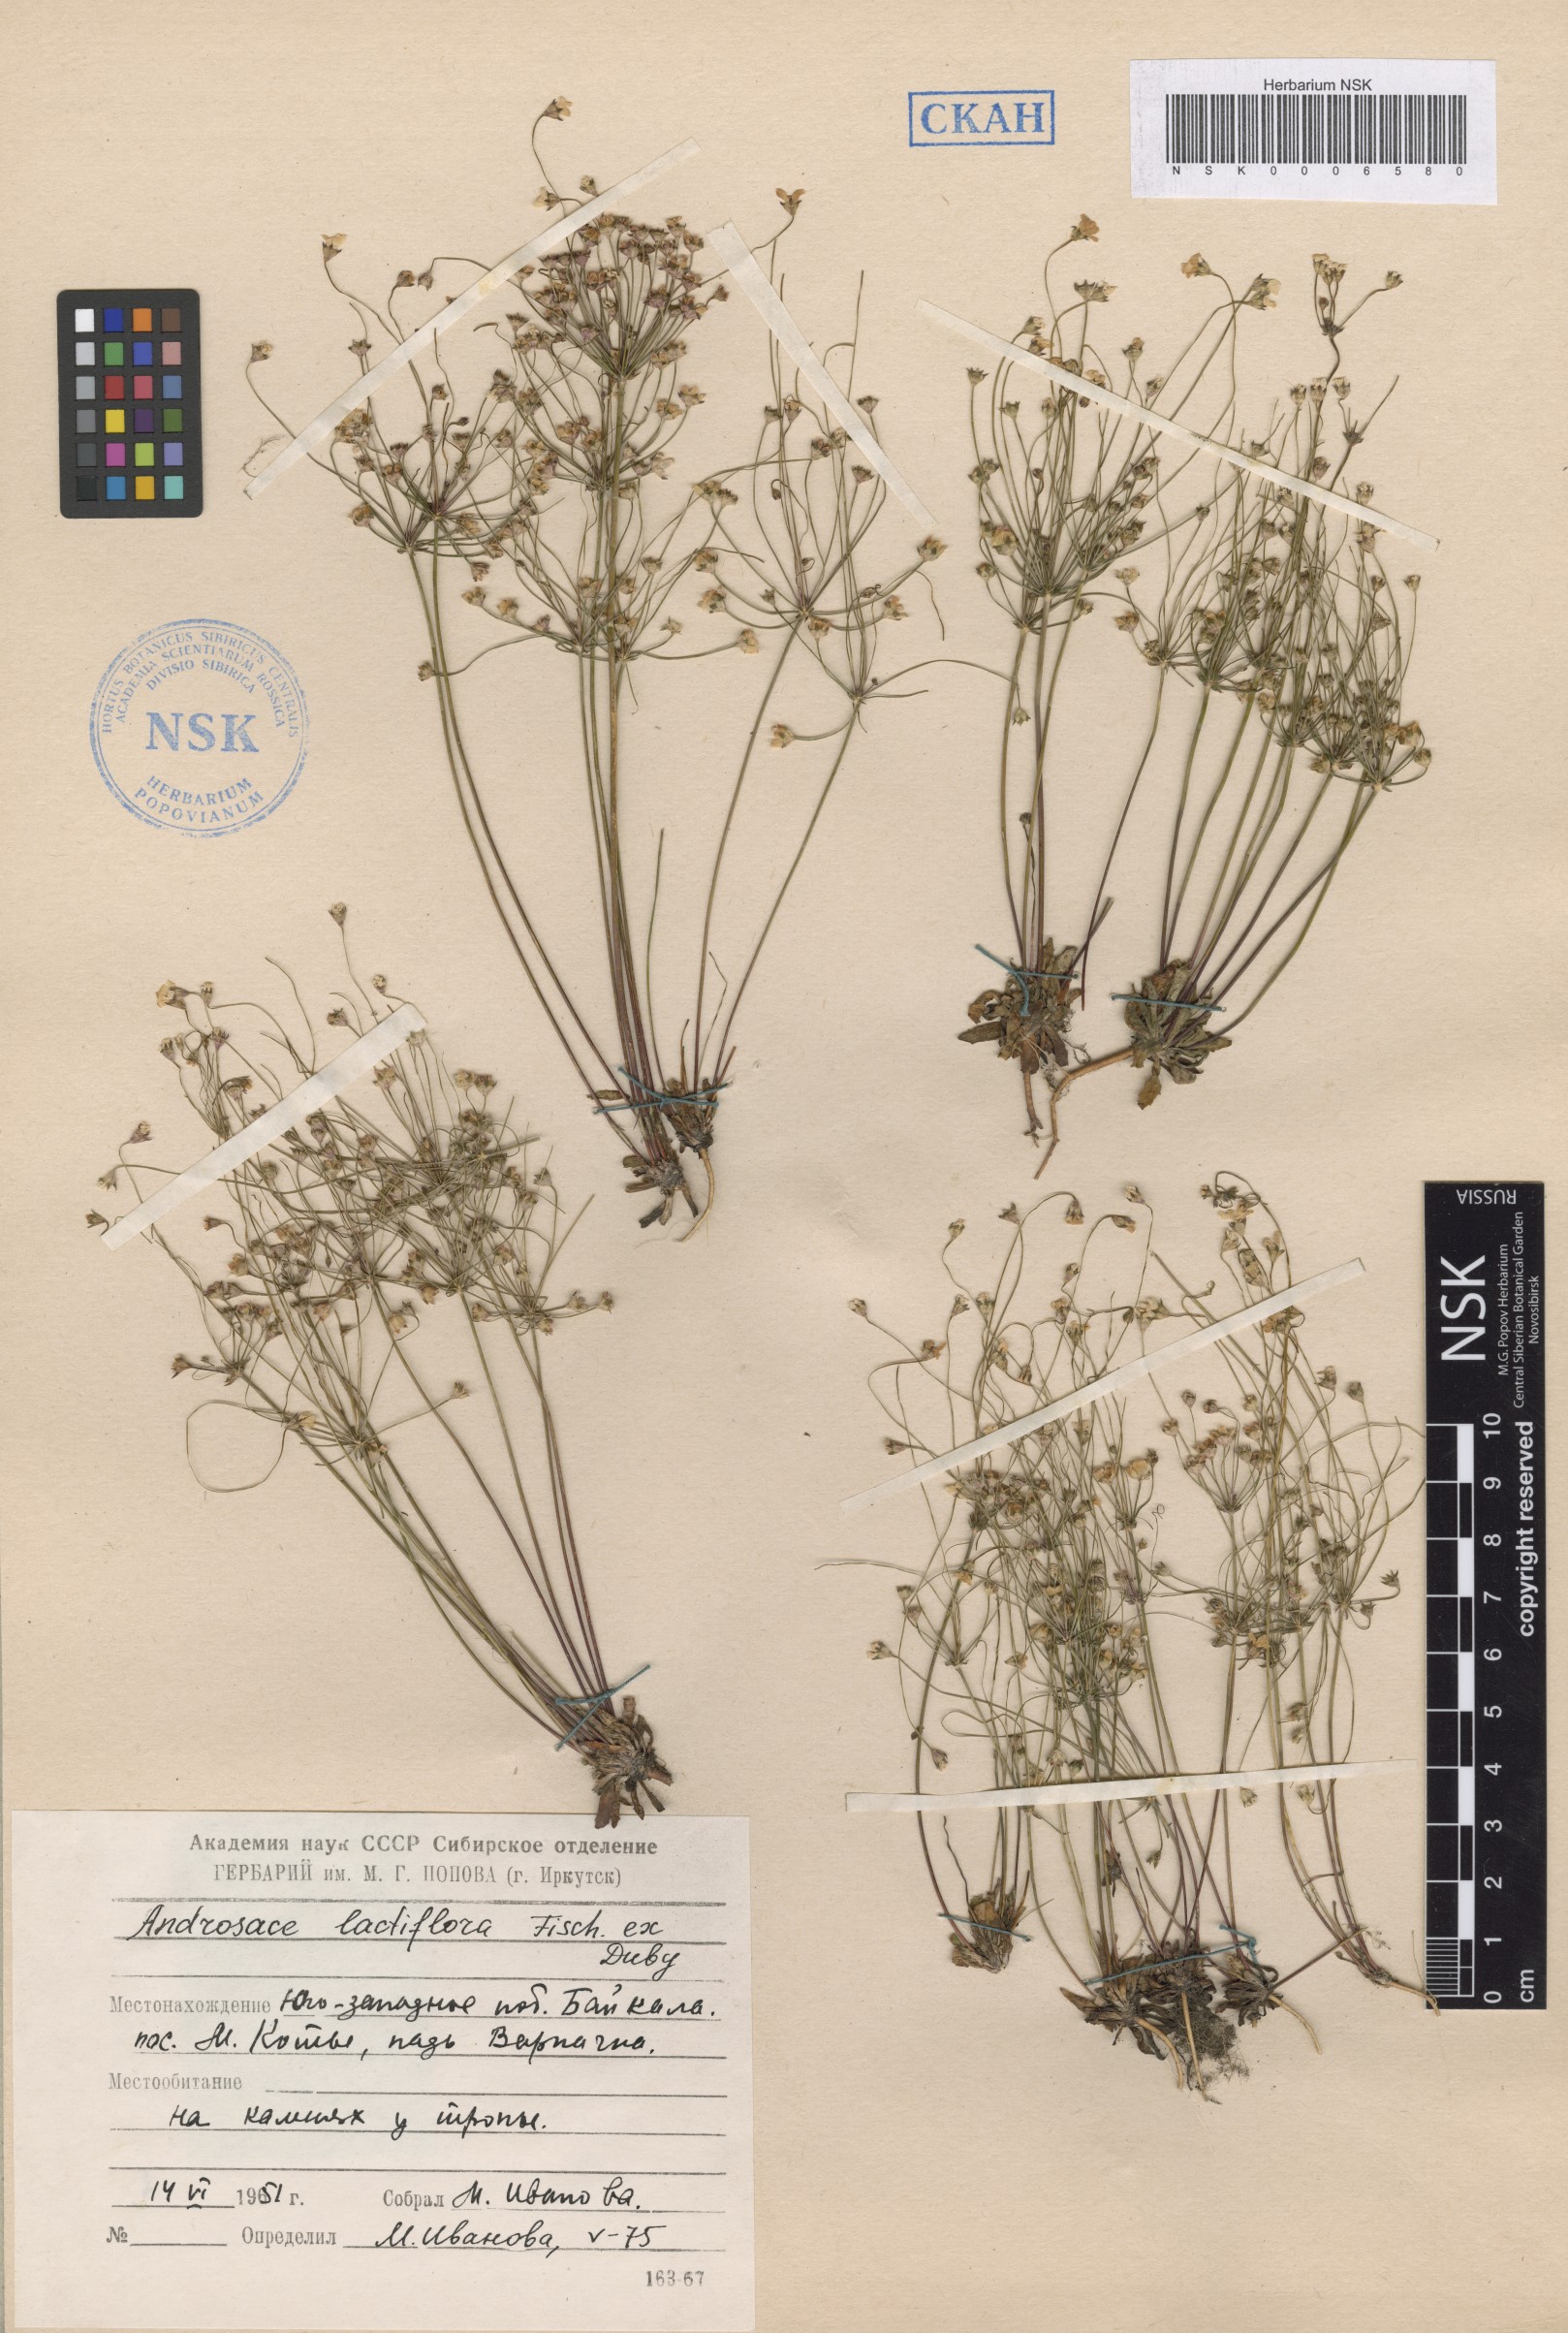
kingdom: Plantae
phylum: Tracheophyta
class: Magnoliopsida
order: Ericales
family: Primulaceae
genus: Androsace
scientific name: Androsace lactiflora
